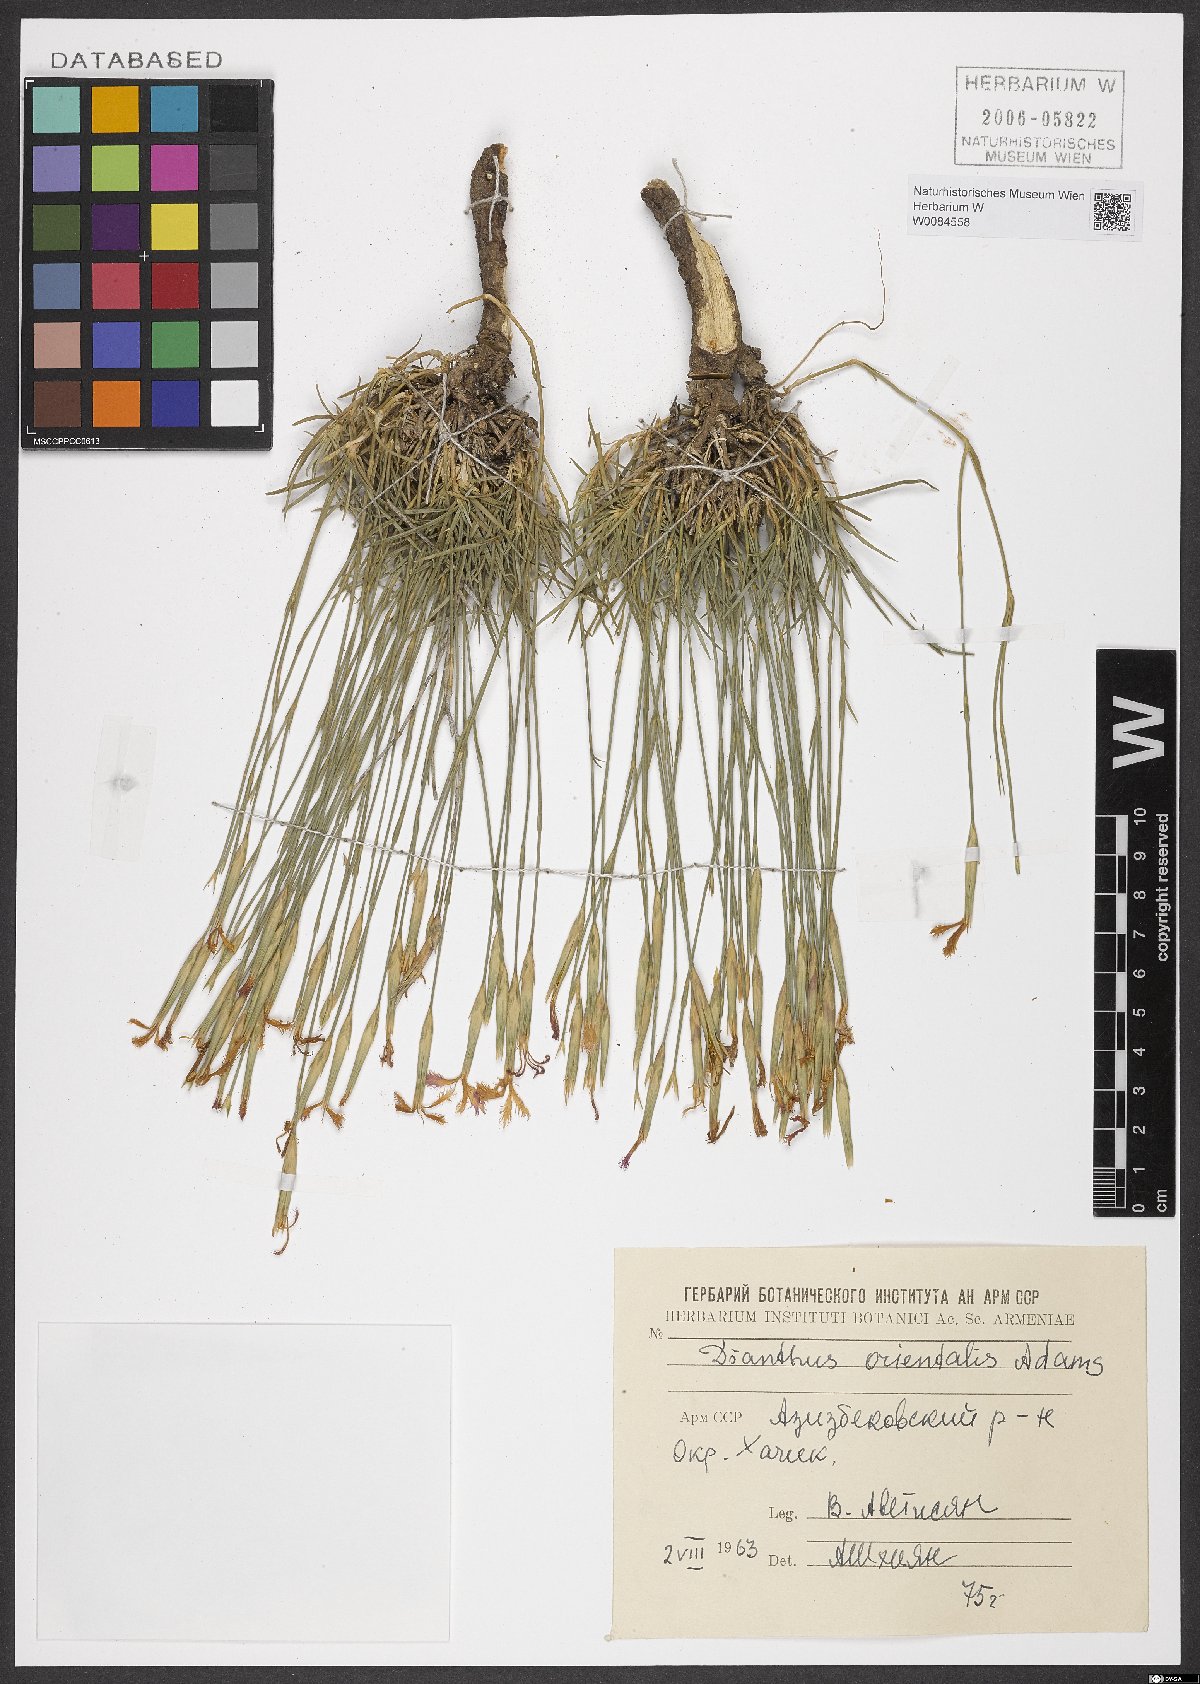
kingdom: Plantae
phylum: Tracheophyta
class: Magnoliopsida
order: Caryophyllales
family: Caryophyllaceae
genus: Dianthus
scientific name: Dianthus orientalis
